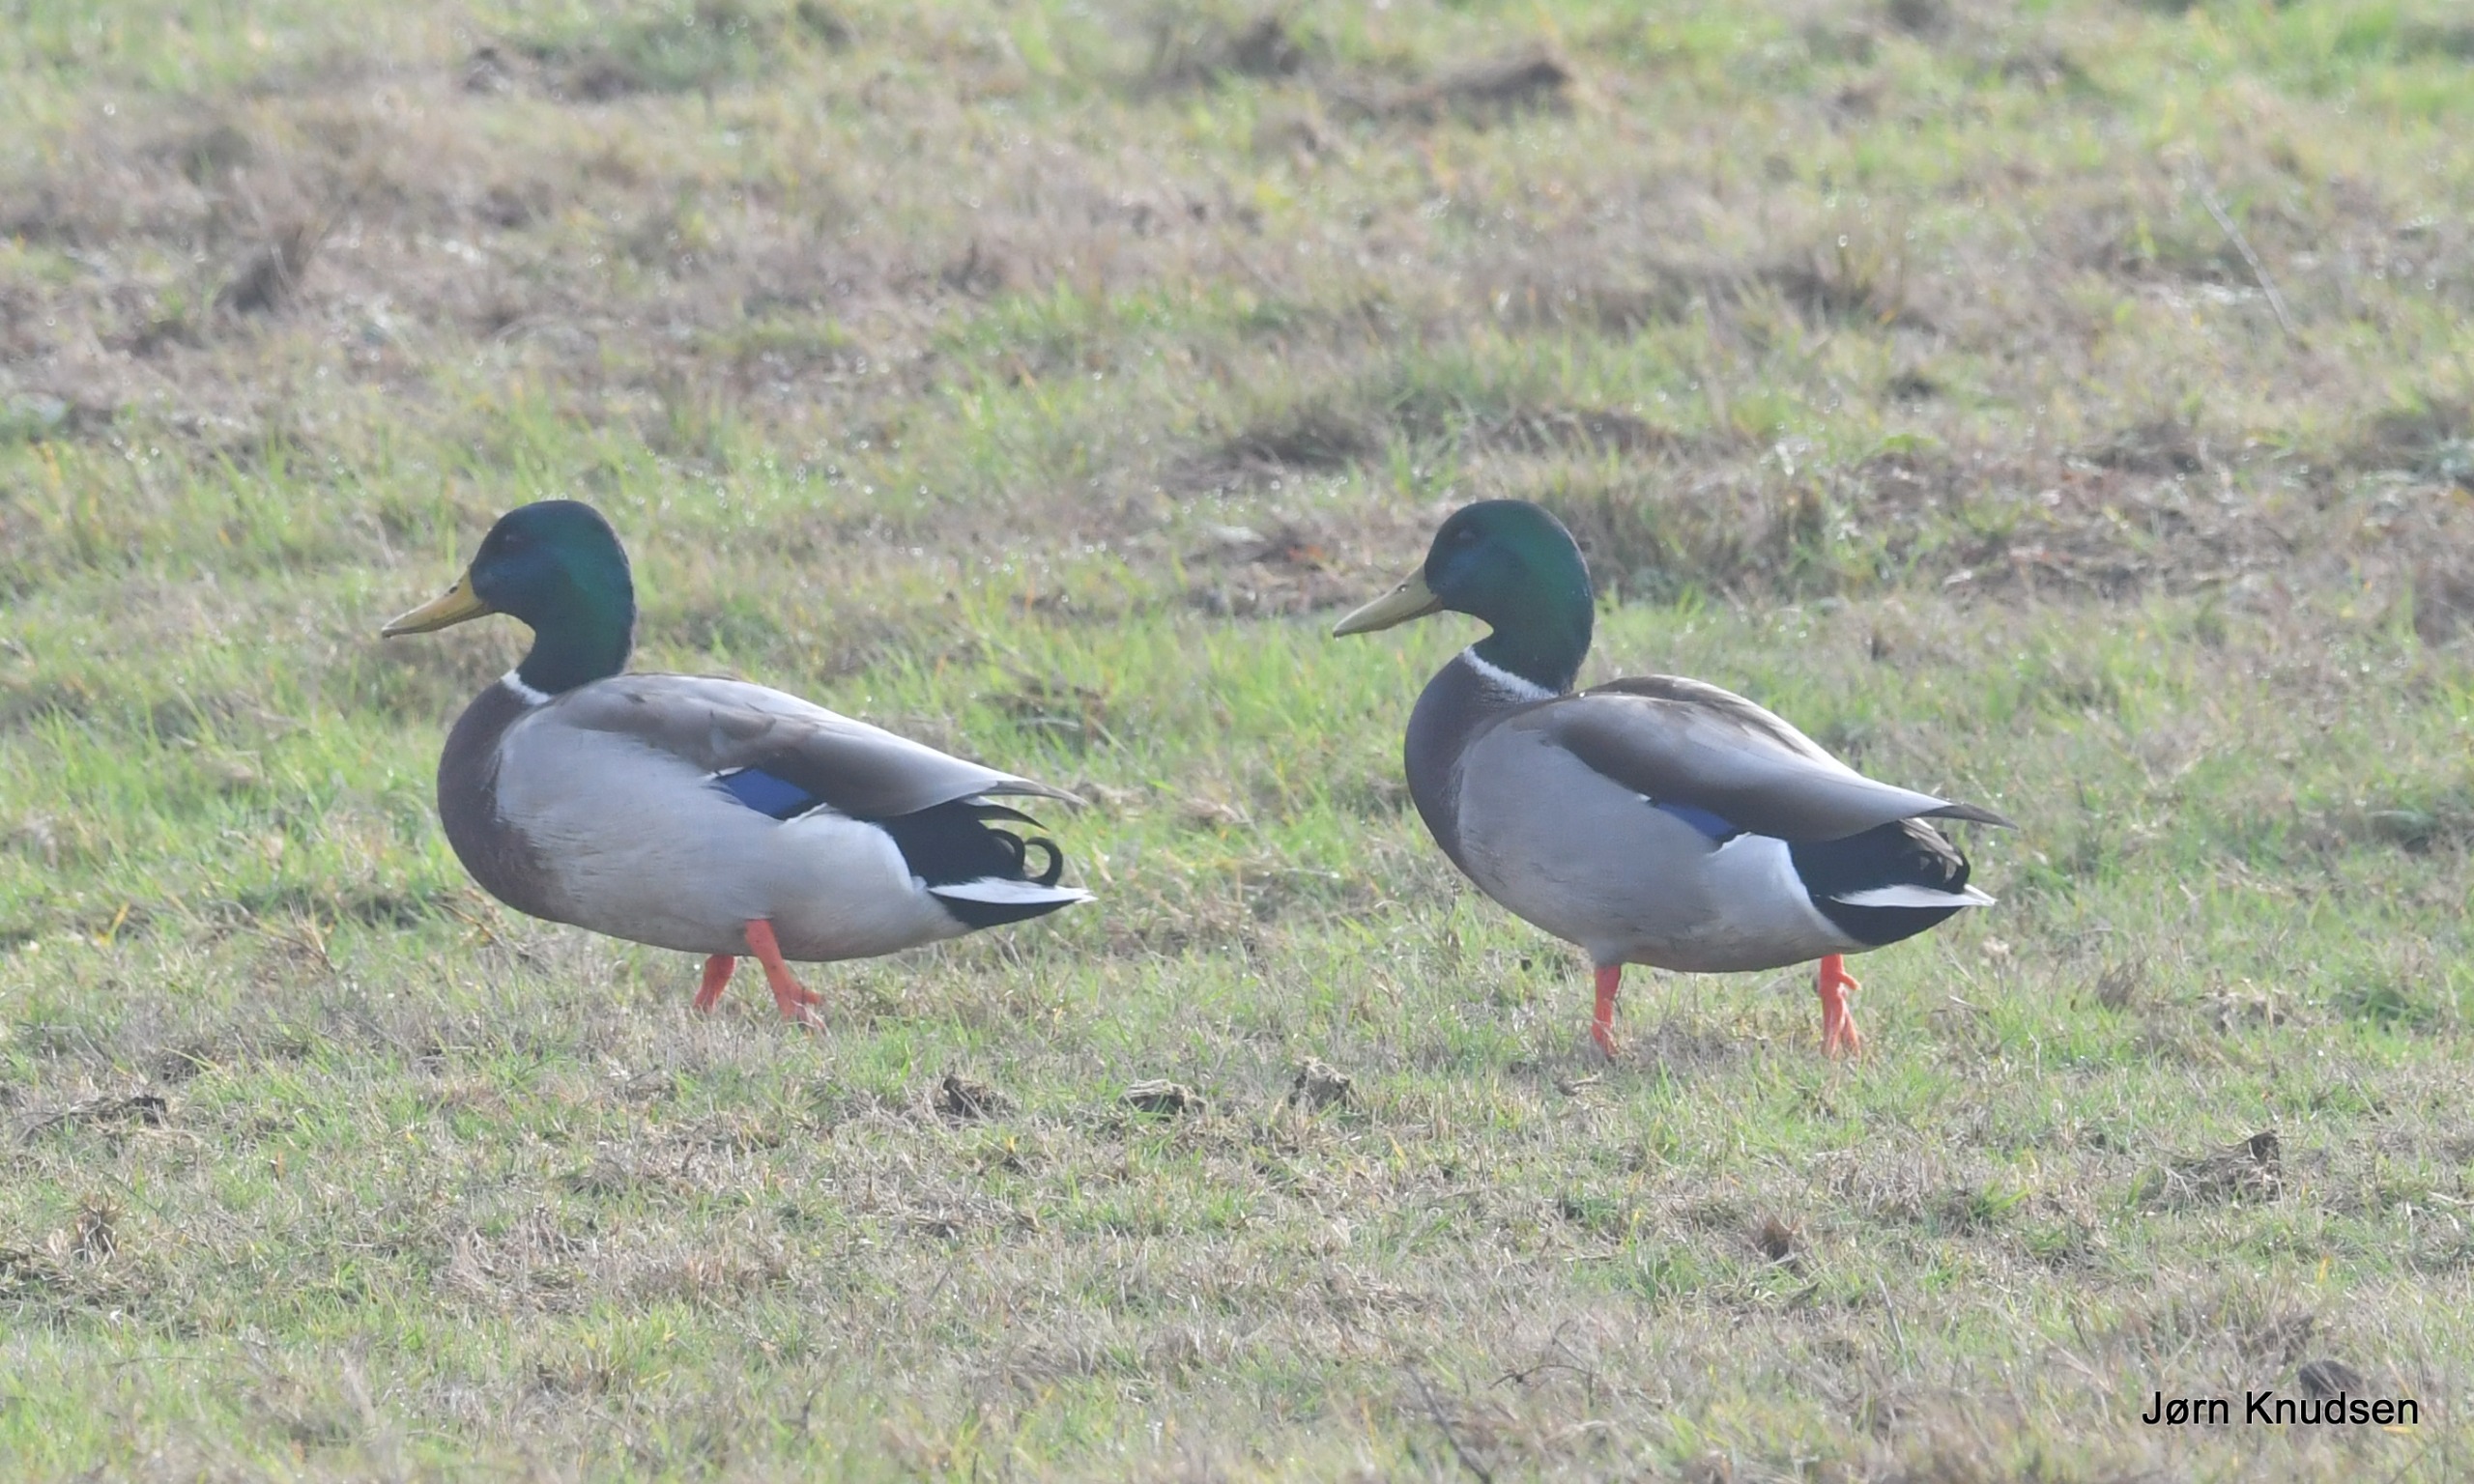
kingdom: Animalia
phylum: Chordata
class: Aves
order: Anseriformes
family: Anatidae
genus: Anas
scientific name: Anas platyrhynchos
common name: Gråand
